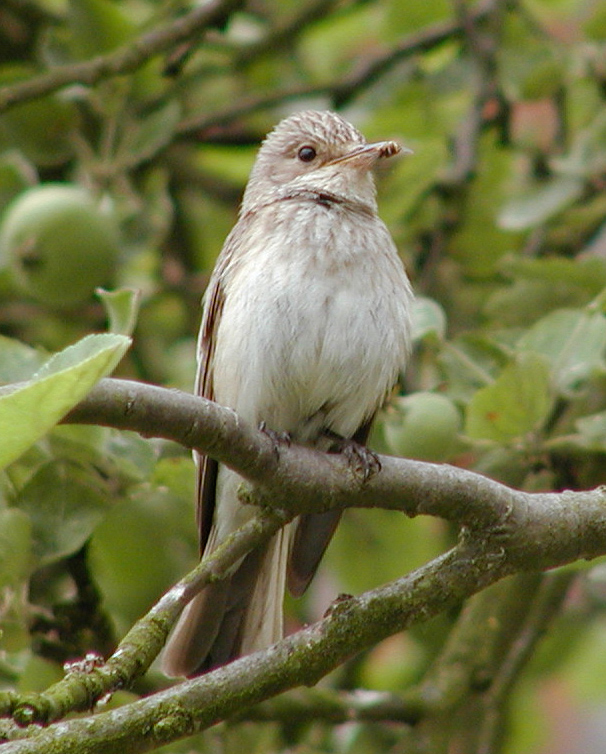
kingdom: Animalia
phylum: Chordata
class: Aves
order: Passeriformes
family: Muscicapidae
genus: Muscicapa
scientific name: Muscicapa striata
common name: Spotted flycatcher
